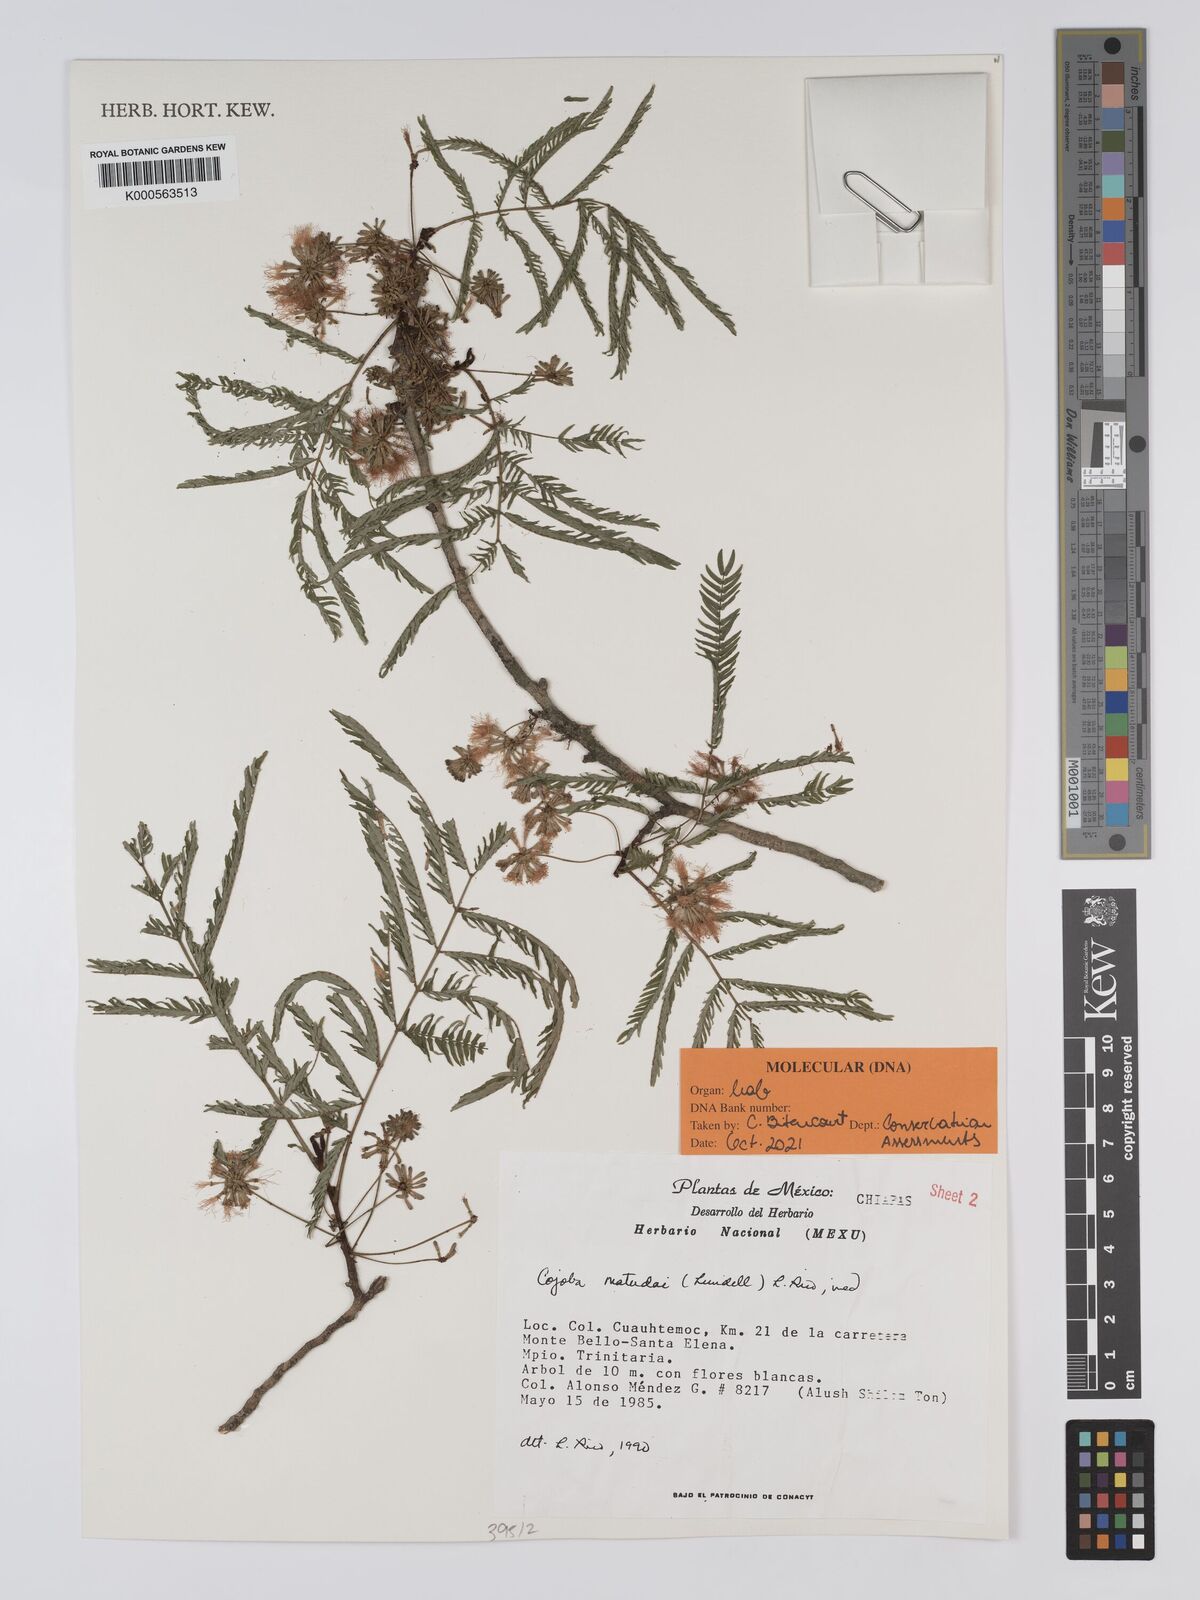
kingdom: Plantae
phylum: Tracheophyta
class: Magnoliopsida
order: Fabales
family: Fabaceae
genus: Cojoba
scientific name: Cojoba arborea
